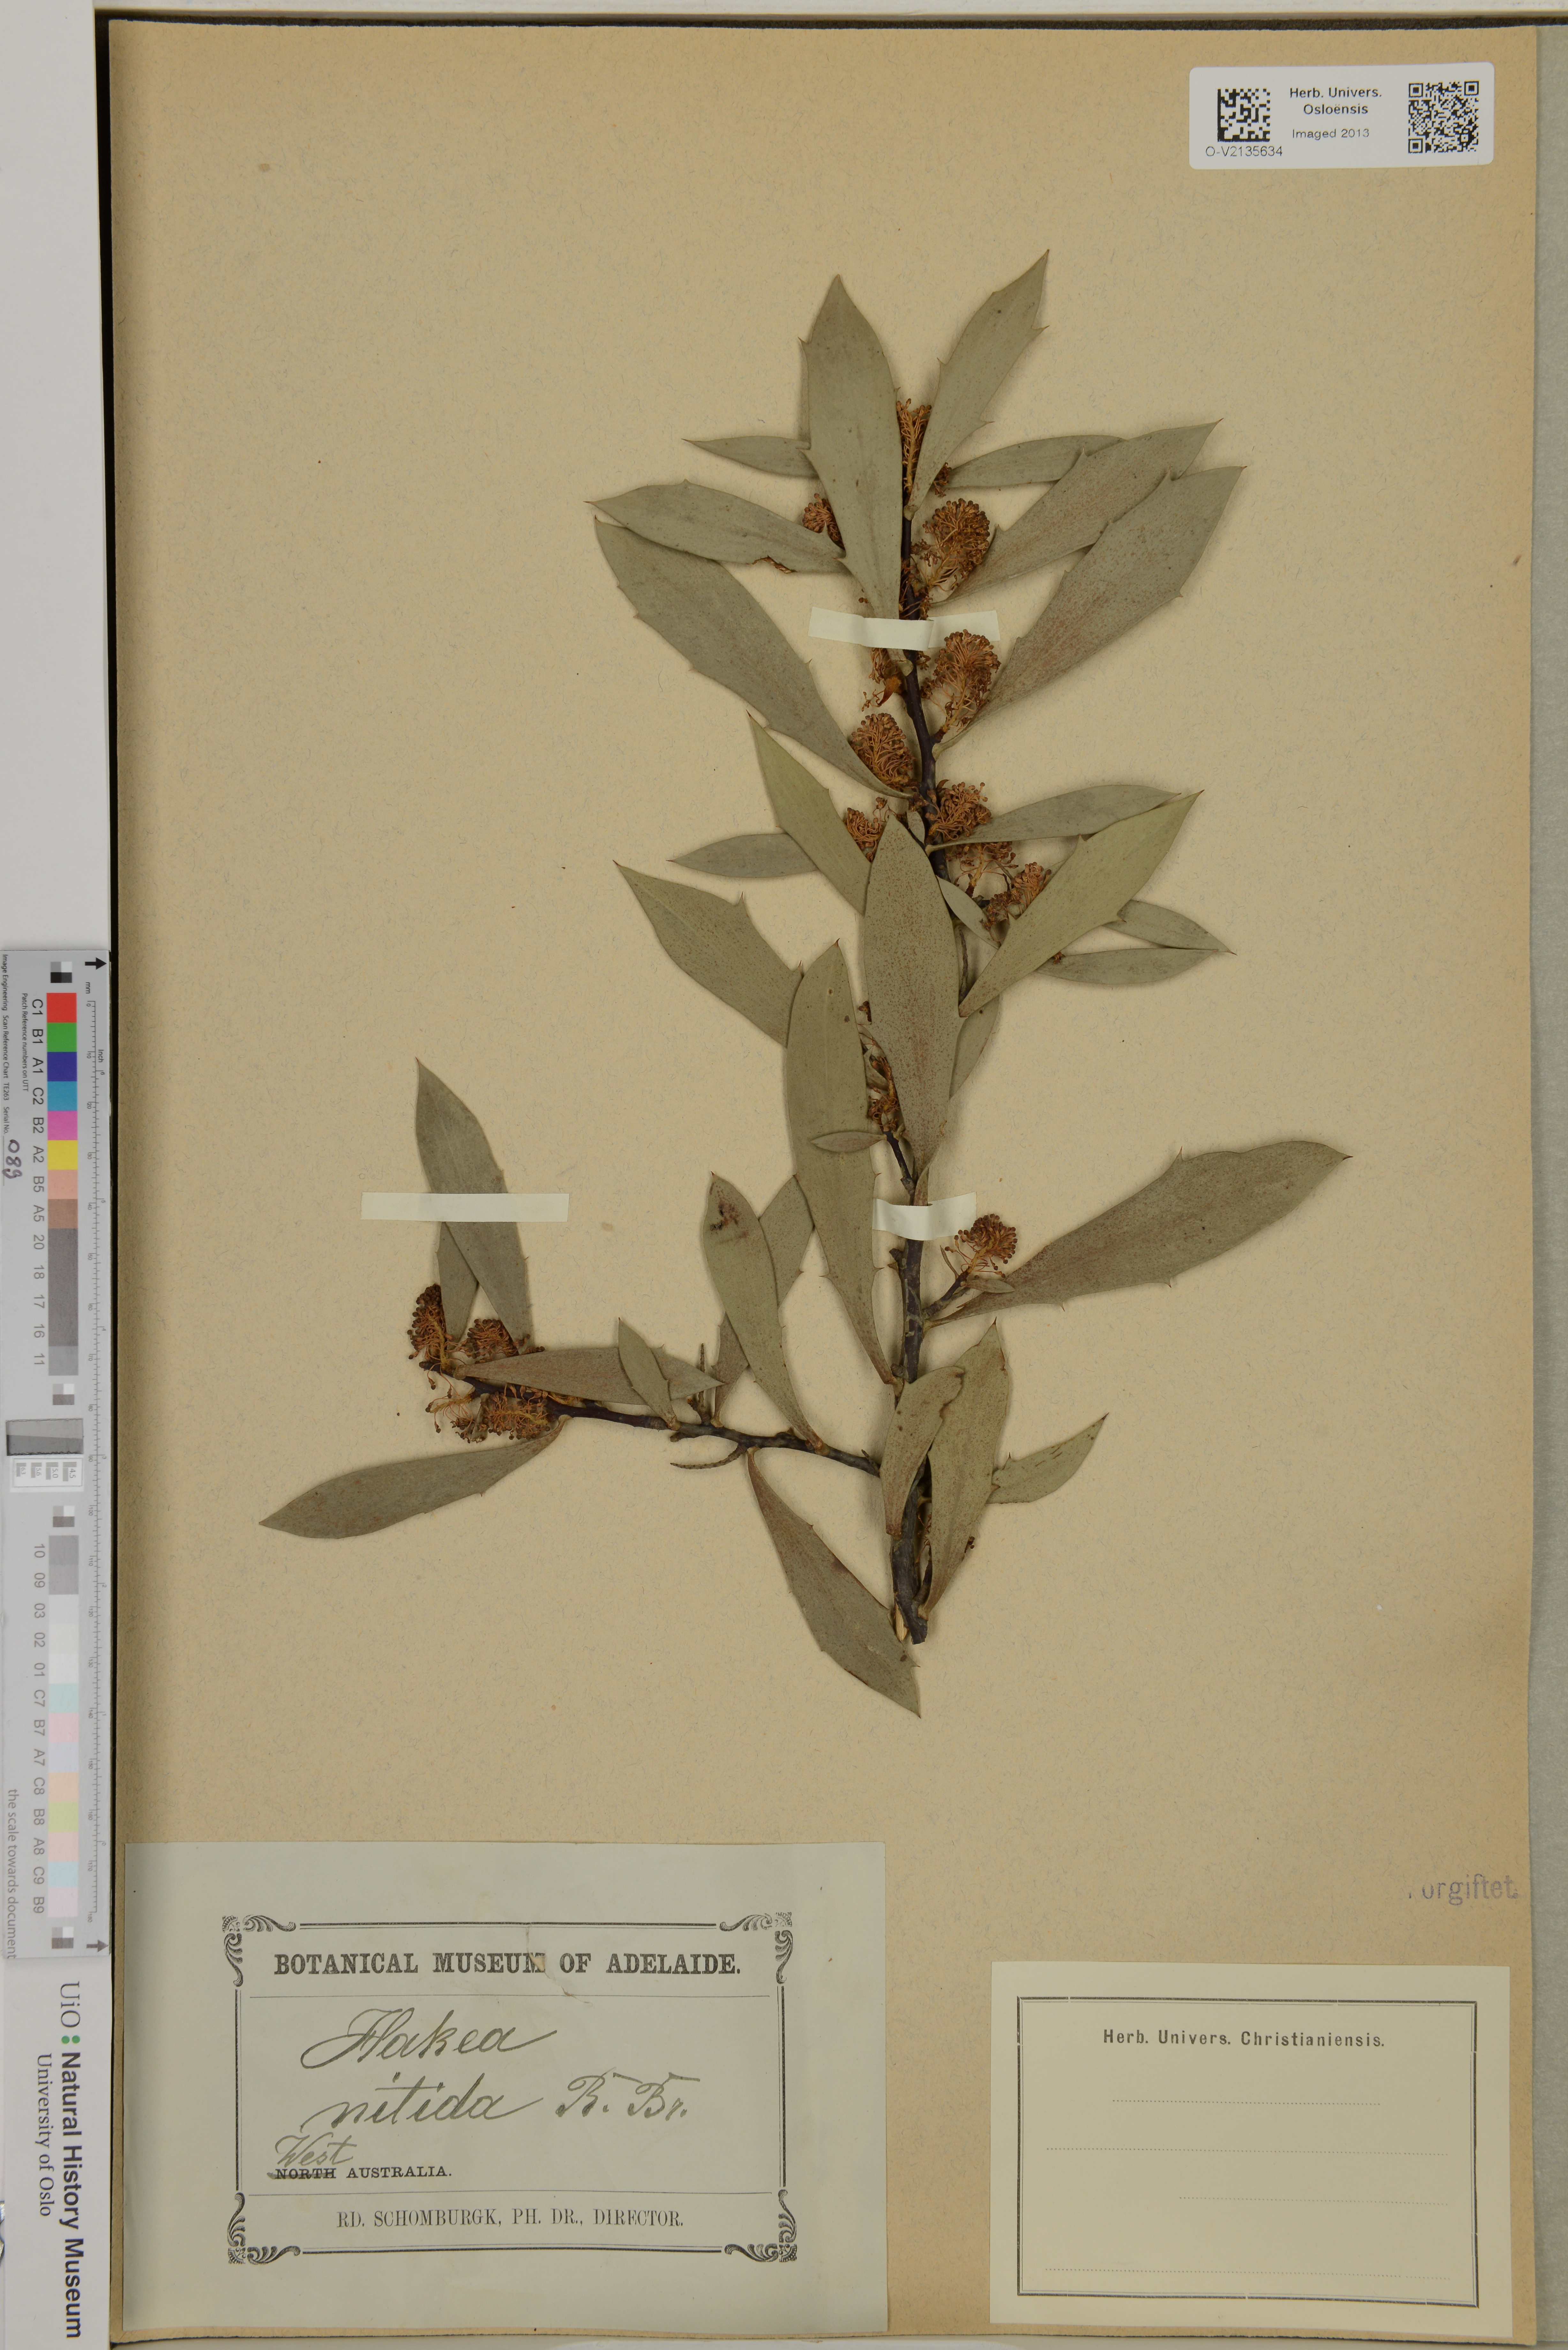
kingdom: Plantae
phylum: Tracheophyta
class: Magnoliopsida
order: Proteales
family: Proteaceae
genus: Hakea
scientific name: Hakea nitida
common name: Frog hakea
